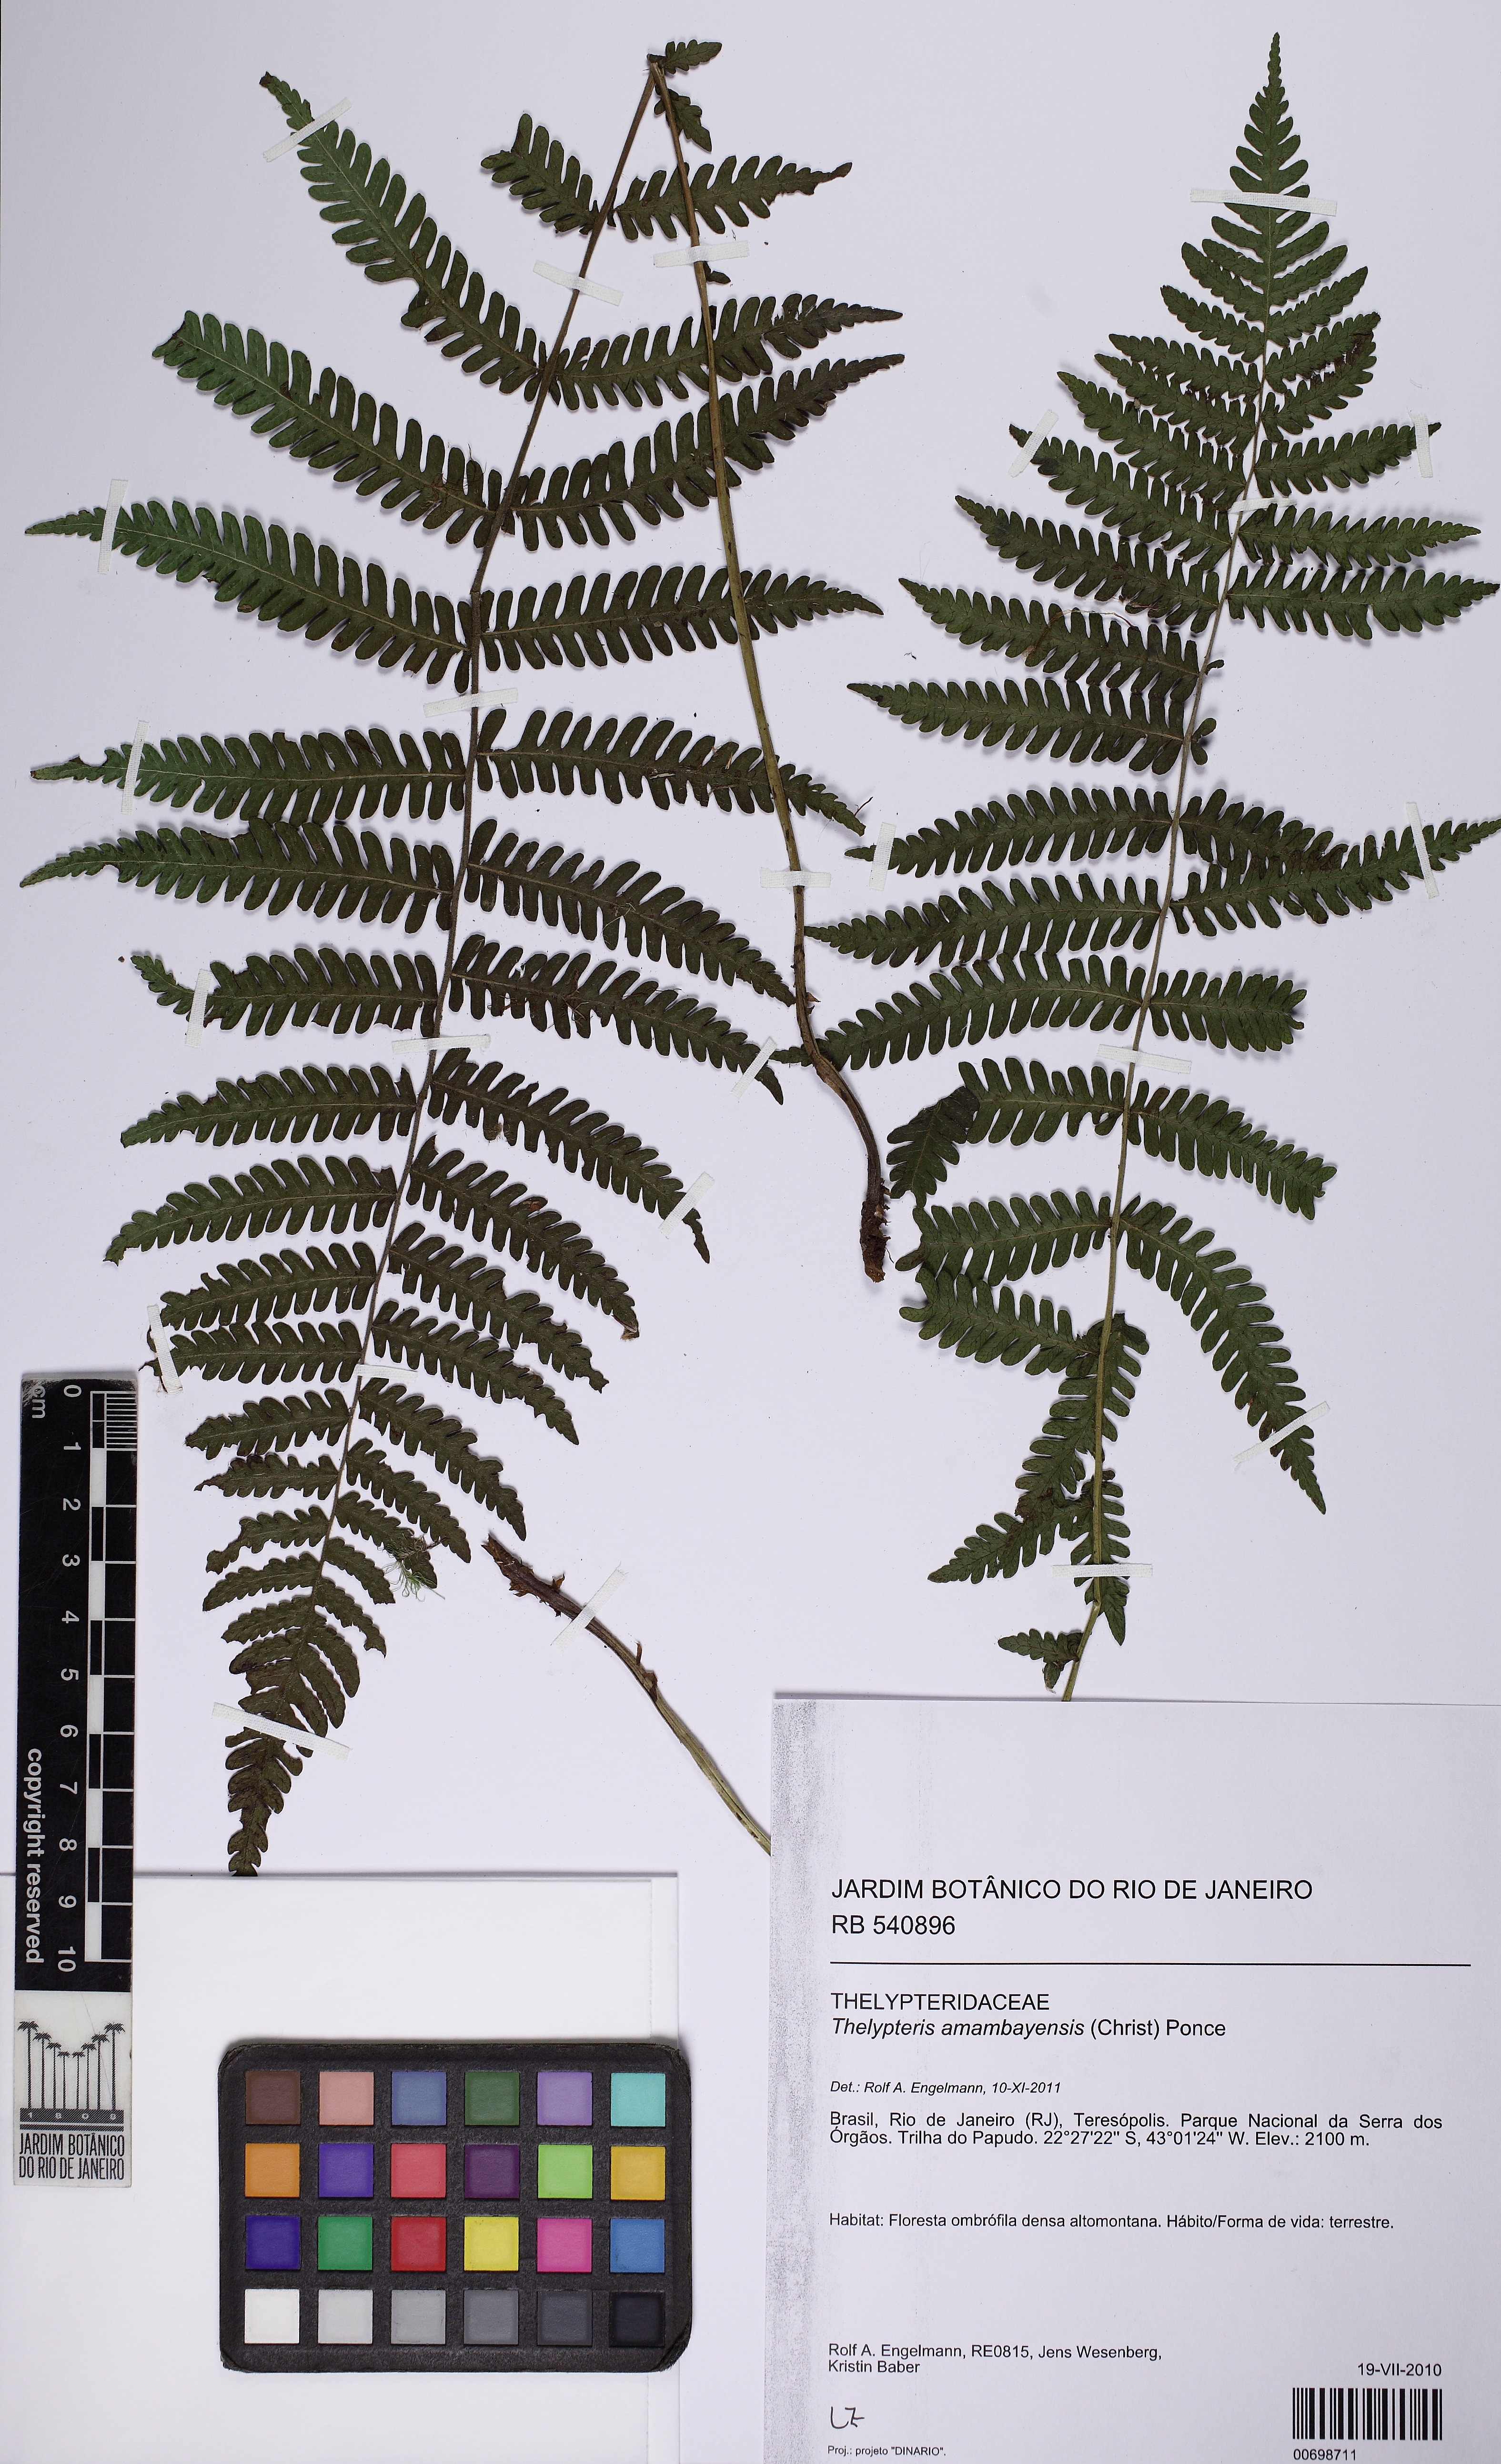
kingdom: Plantae
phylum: Tracheophyta
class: Polypodiopsida
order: Polypodiales
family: Thelypteridaceae
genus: Amauropelta
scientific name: Amauropelta amambayensis
